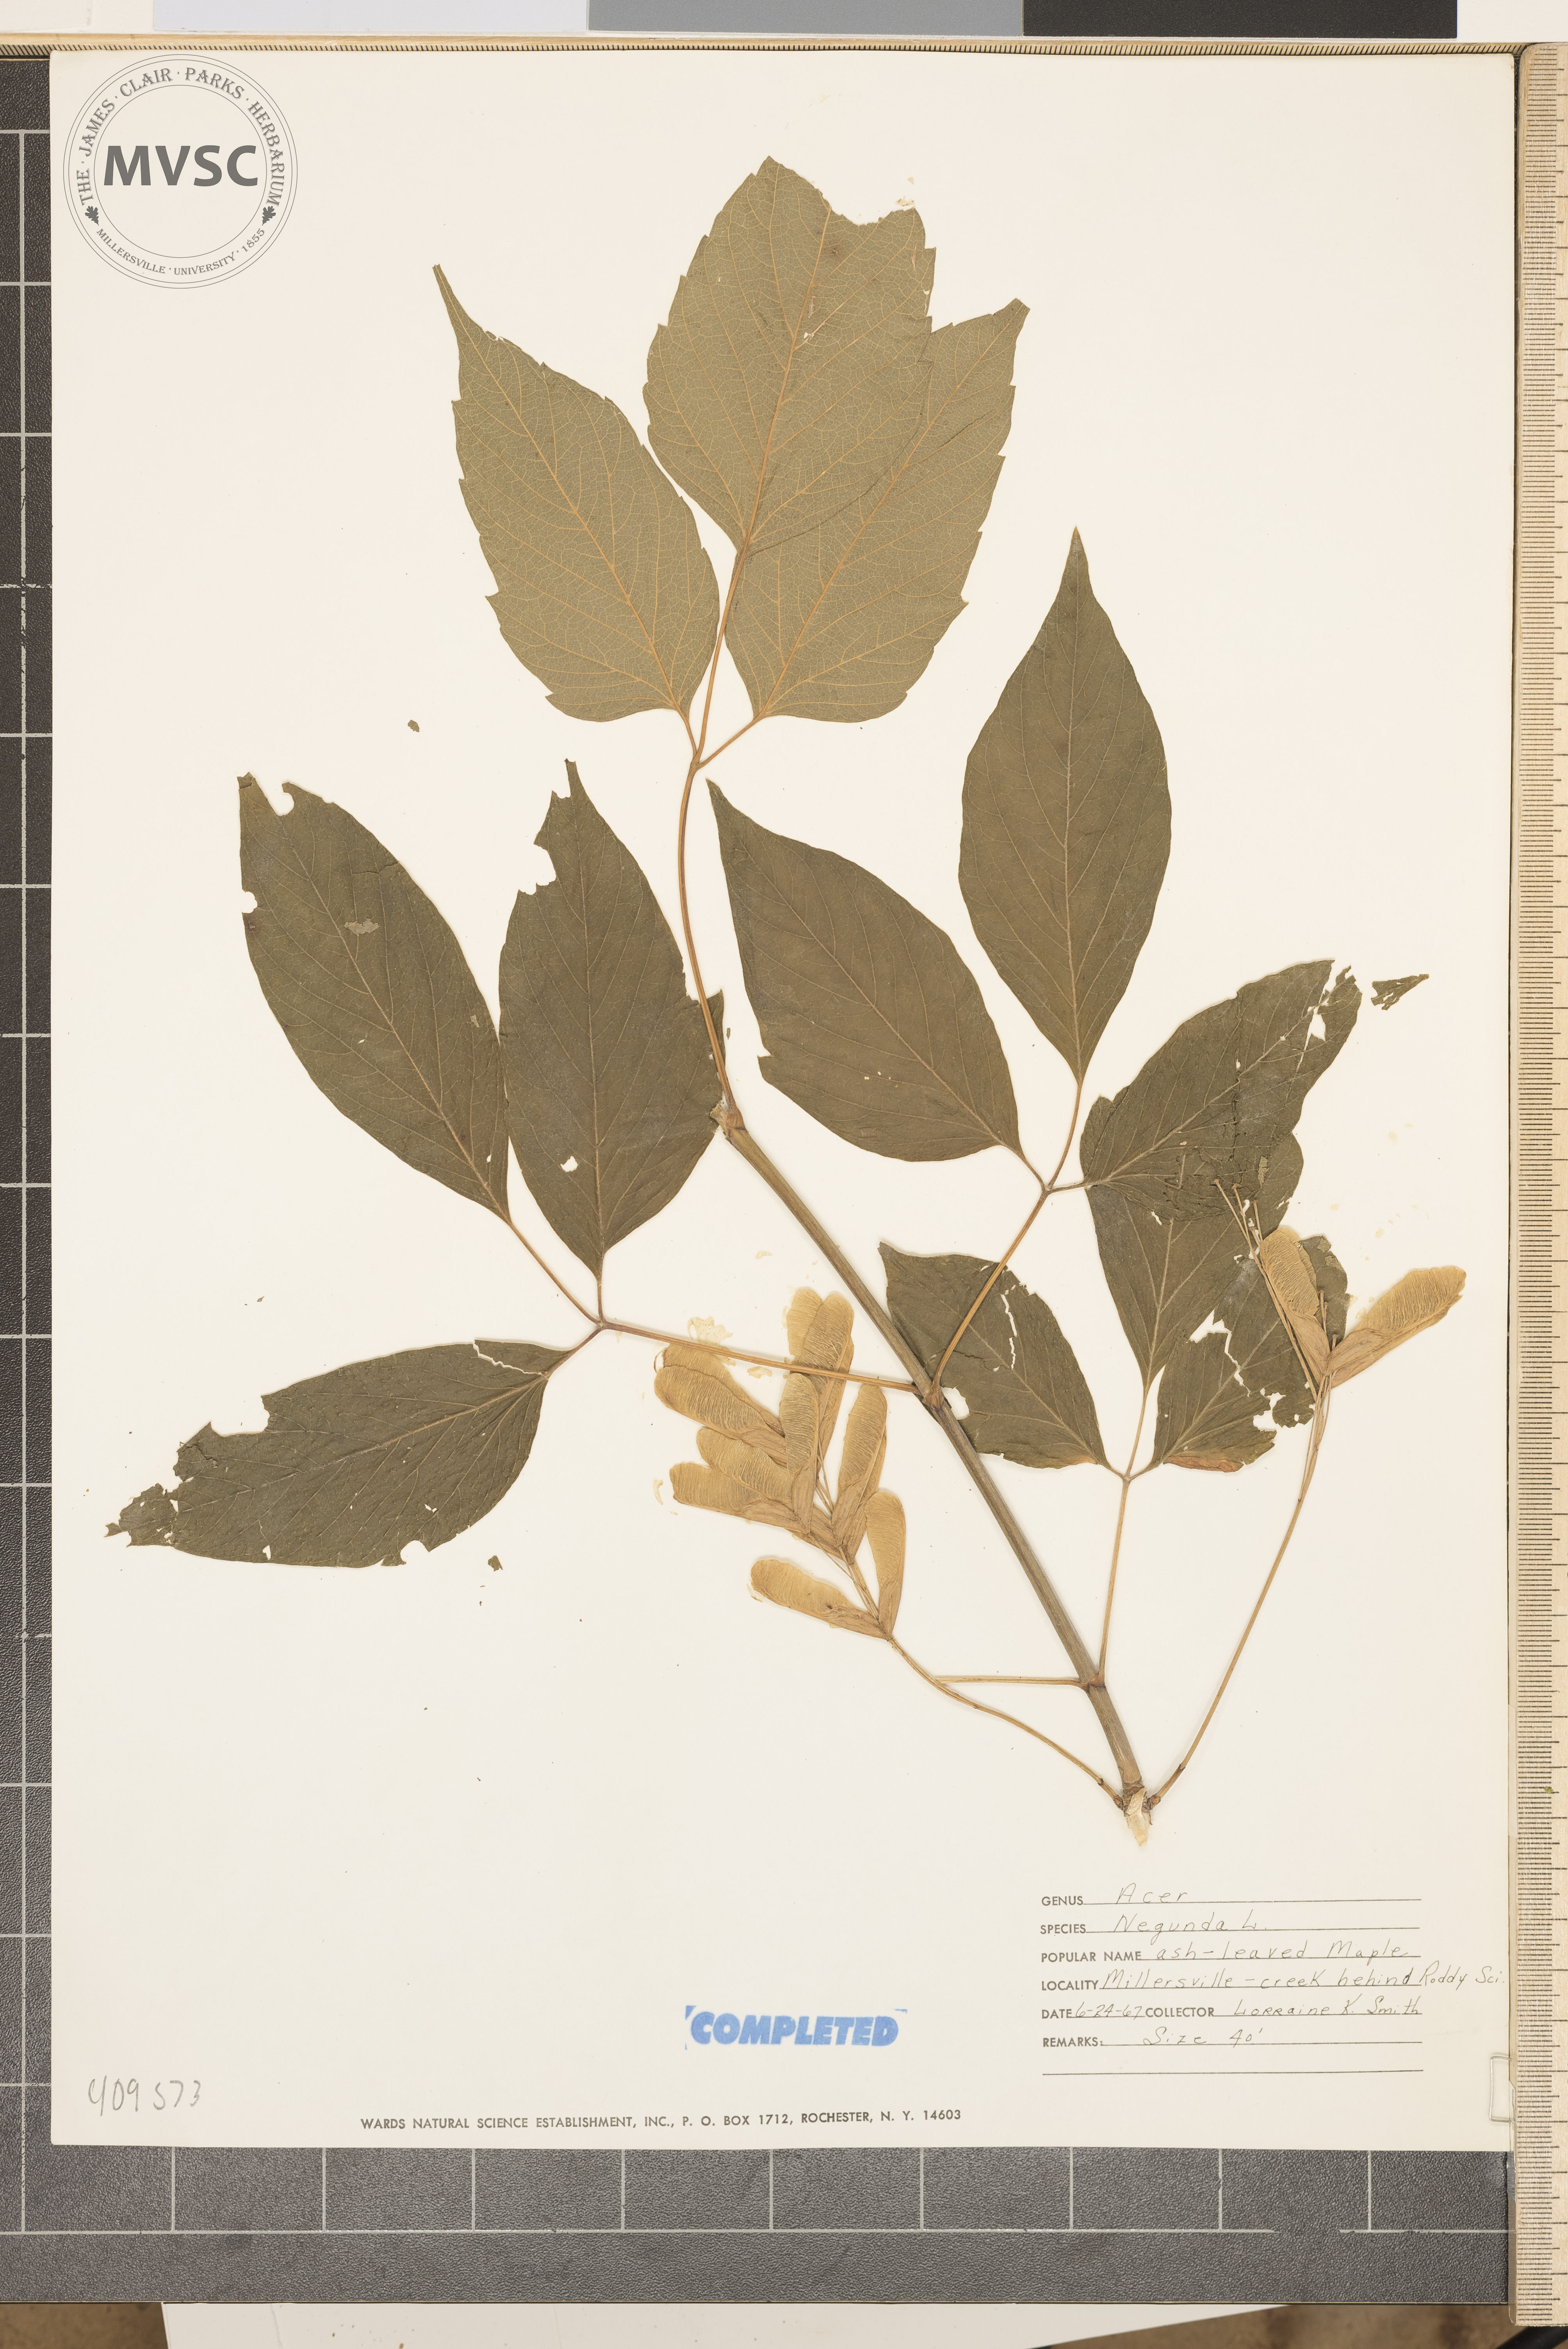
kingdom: Plantae
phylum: Tracheophyta
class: Magnoliopsida
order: Sapindales
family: Sapindaceae
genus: Acer
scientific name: Acer negundo
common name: Ashleaf maple
